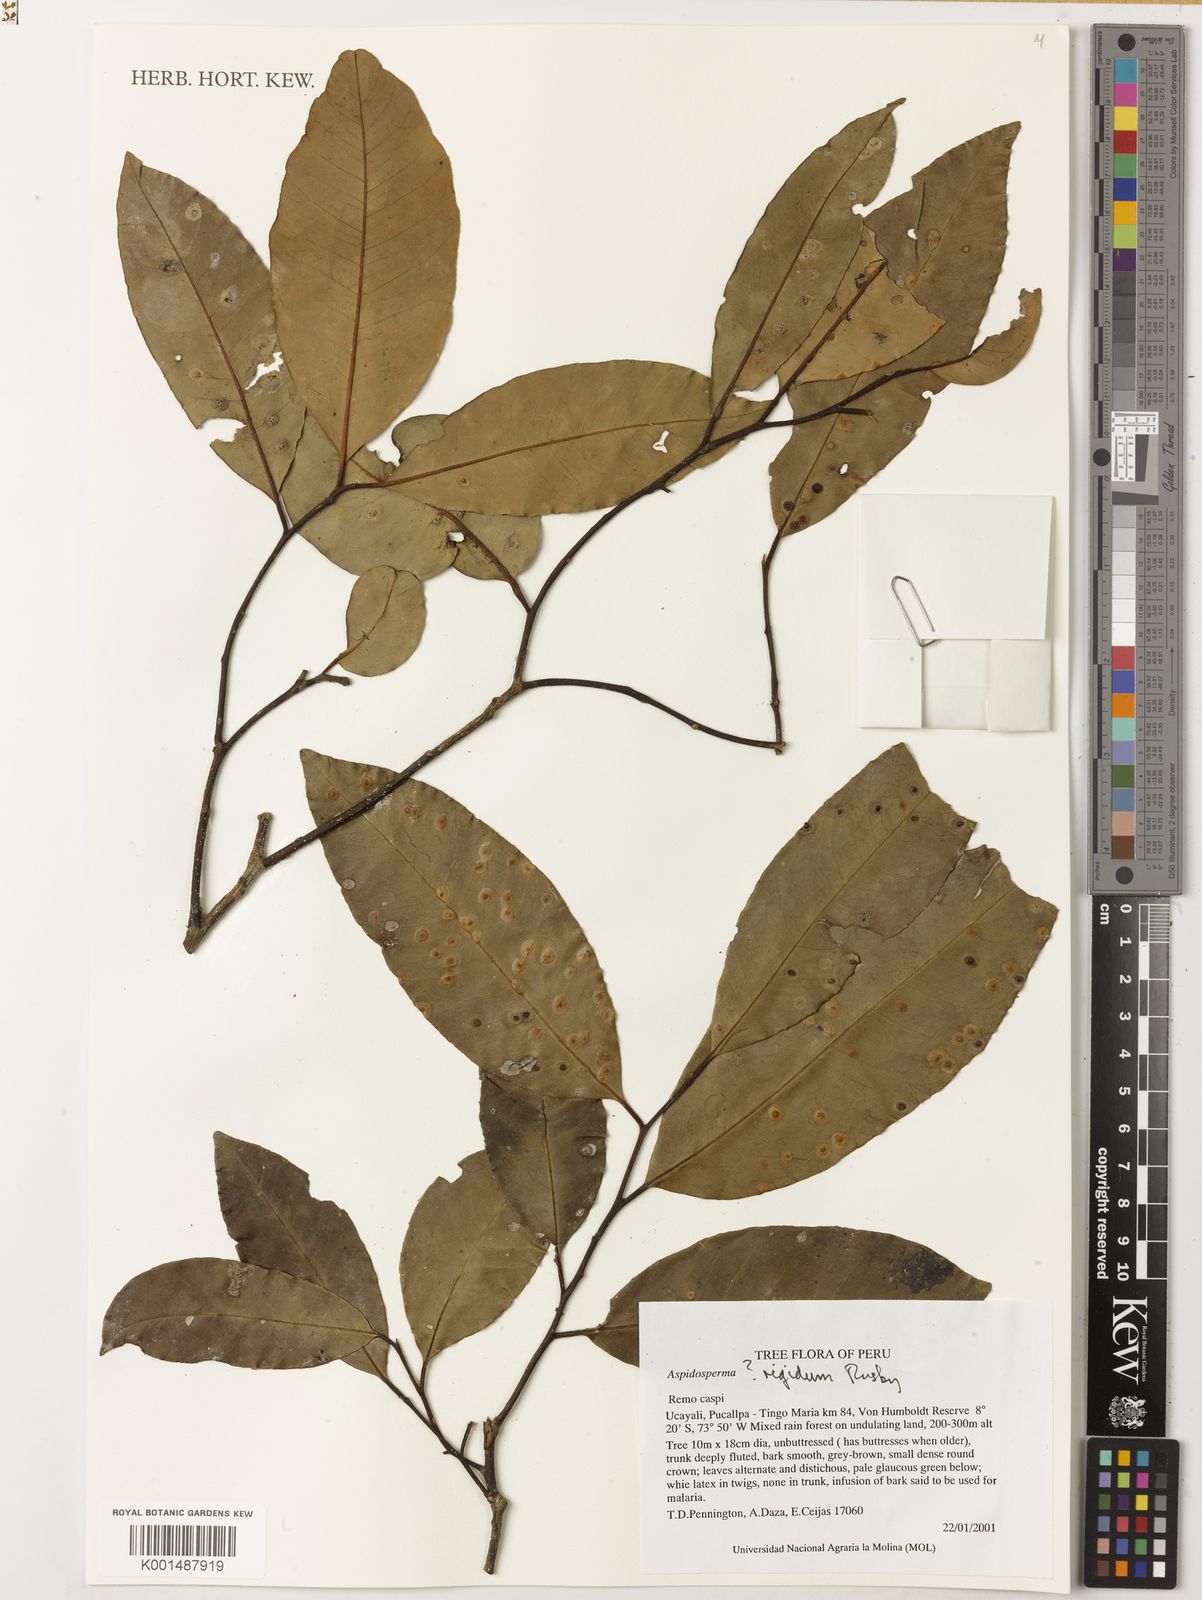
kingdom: Plantae
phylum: Tracheophyta
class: Magnoliopsida
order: Gentianales
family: Apocynaceae
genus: Aspidosperma
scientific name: Aspidosperma rigidum
